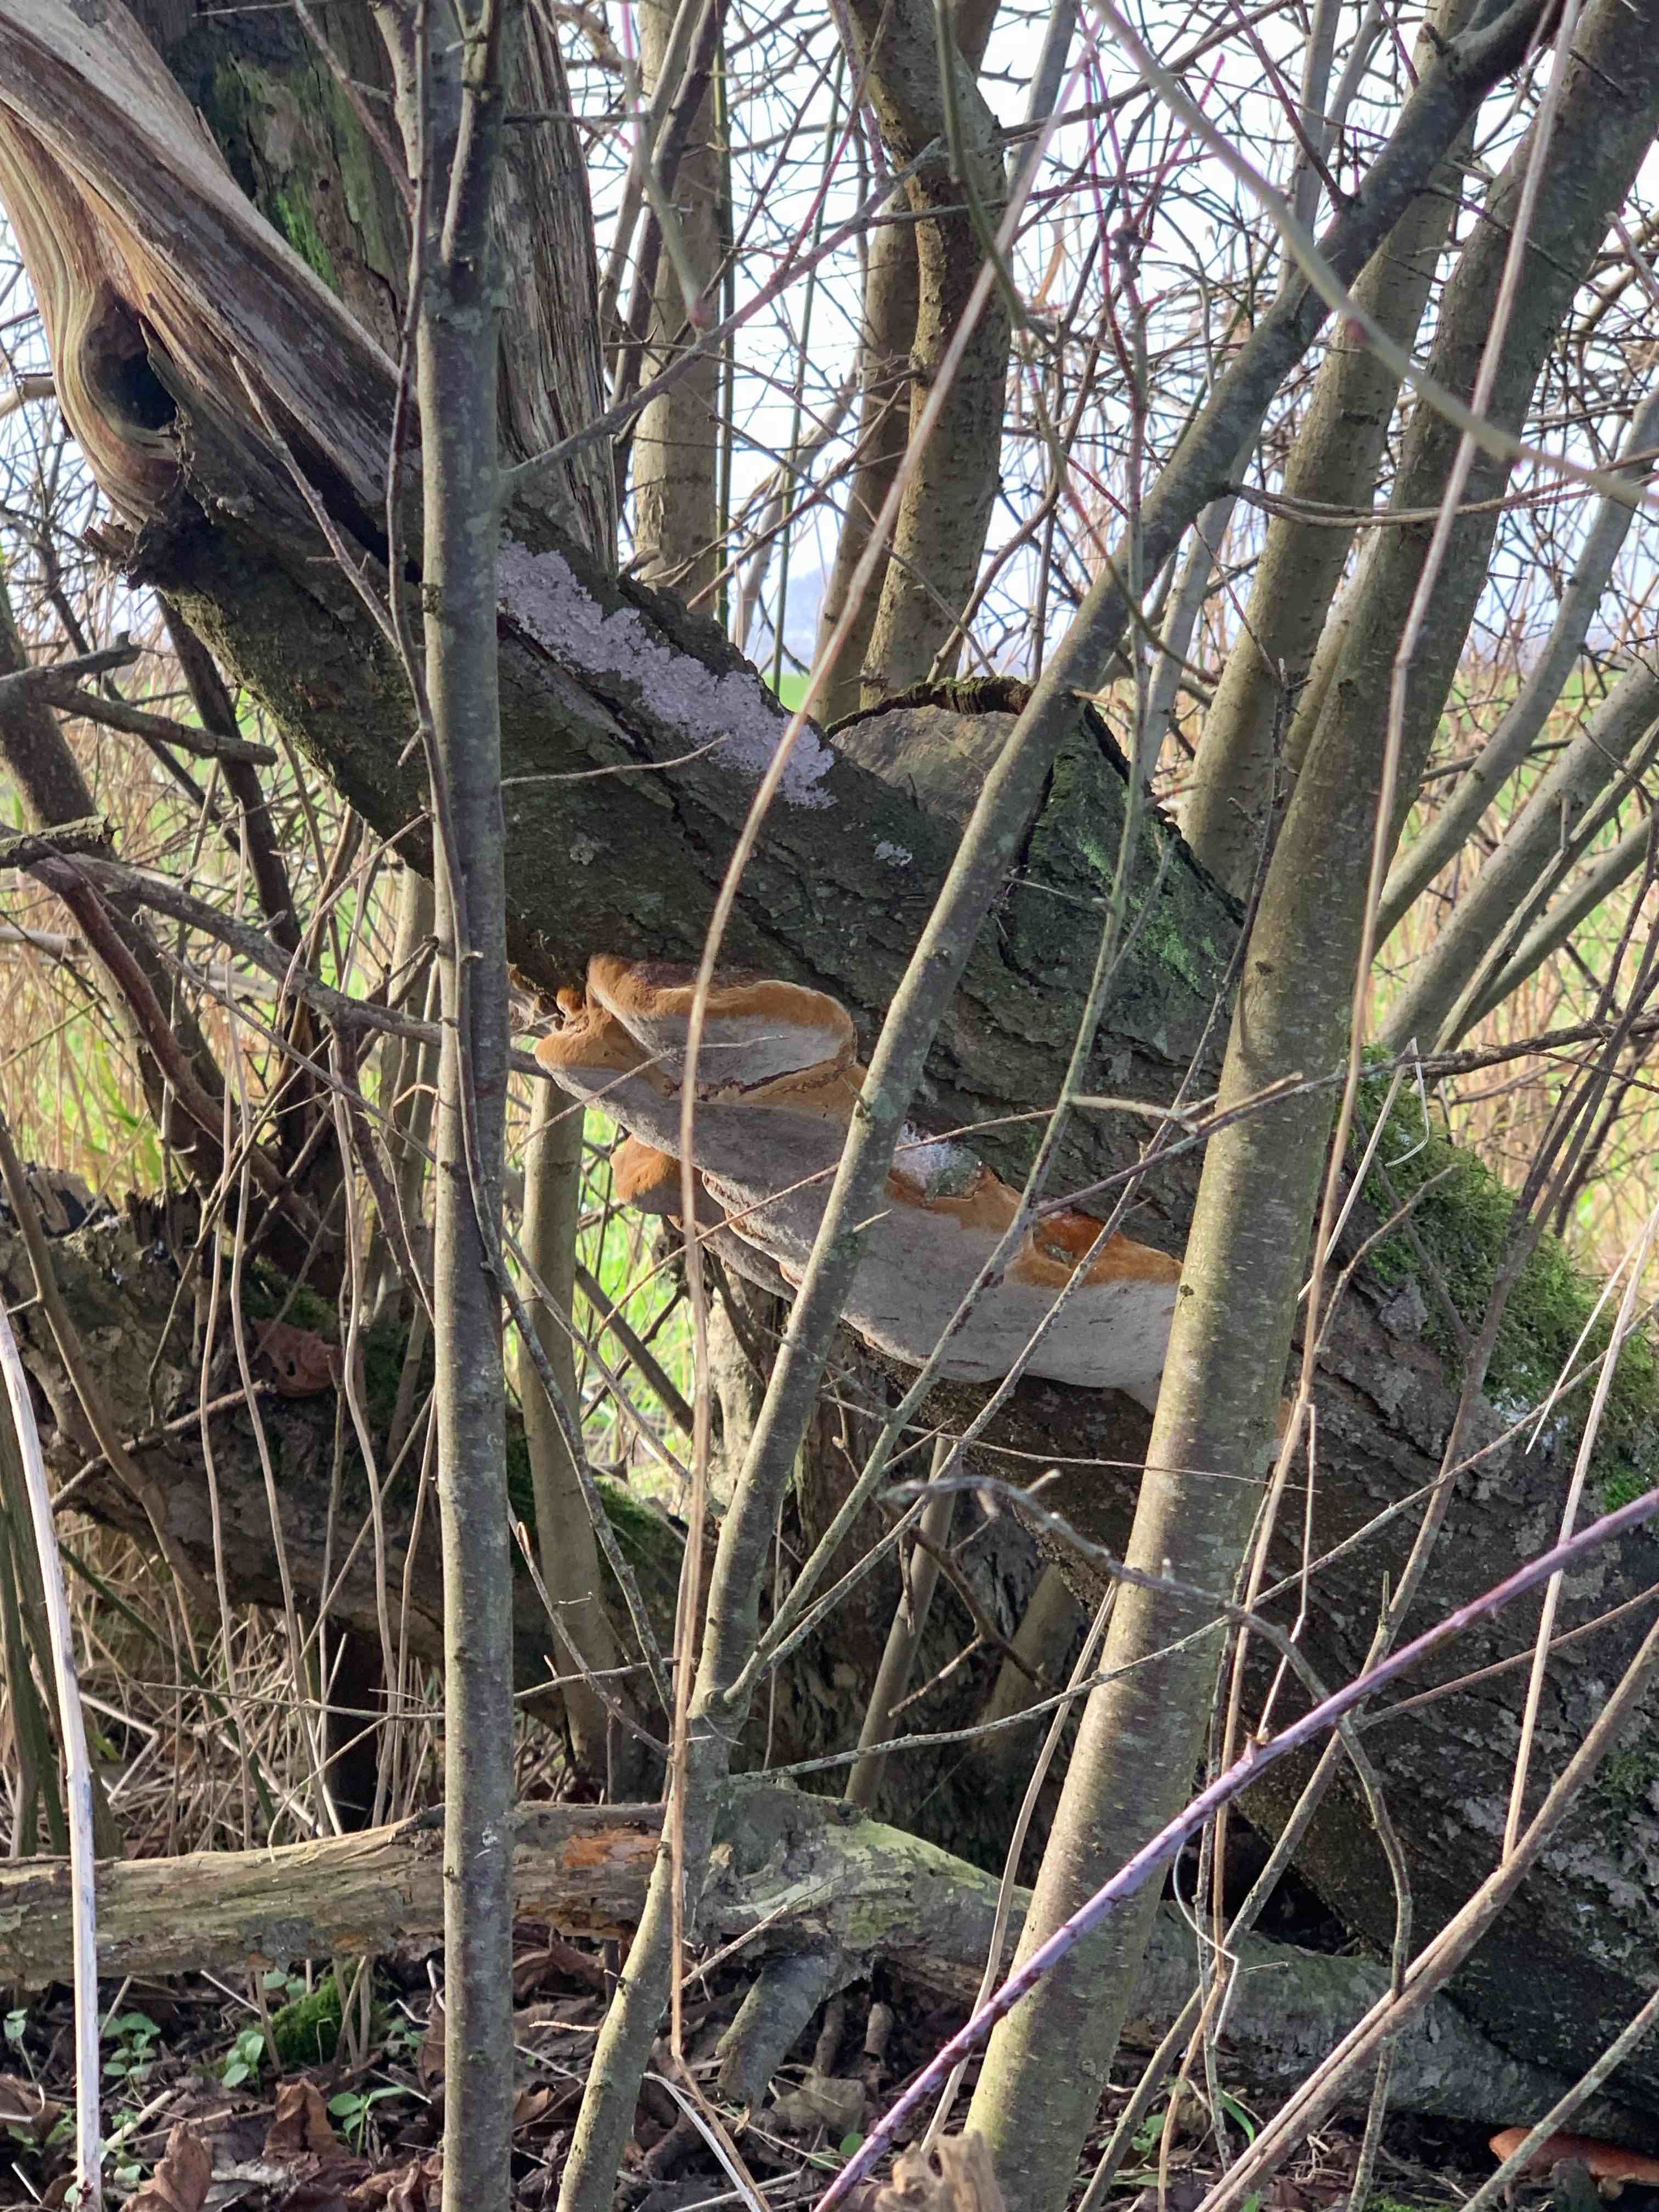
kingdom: Fungi
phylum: Basidiomycota
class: Agaricomycetes
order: Hymenochaetales
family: Hymenochaetaceae
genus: Phellinus
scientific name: Phellinus pomaceus
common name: blomme-ildporesvamp
